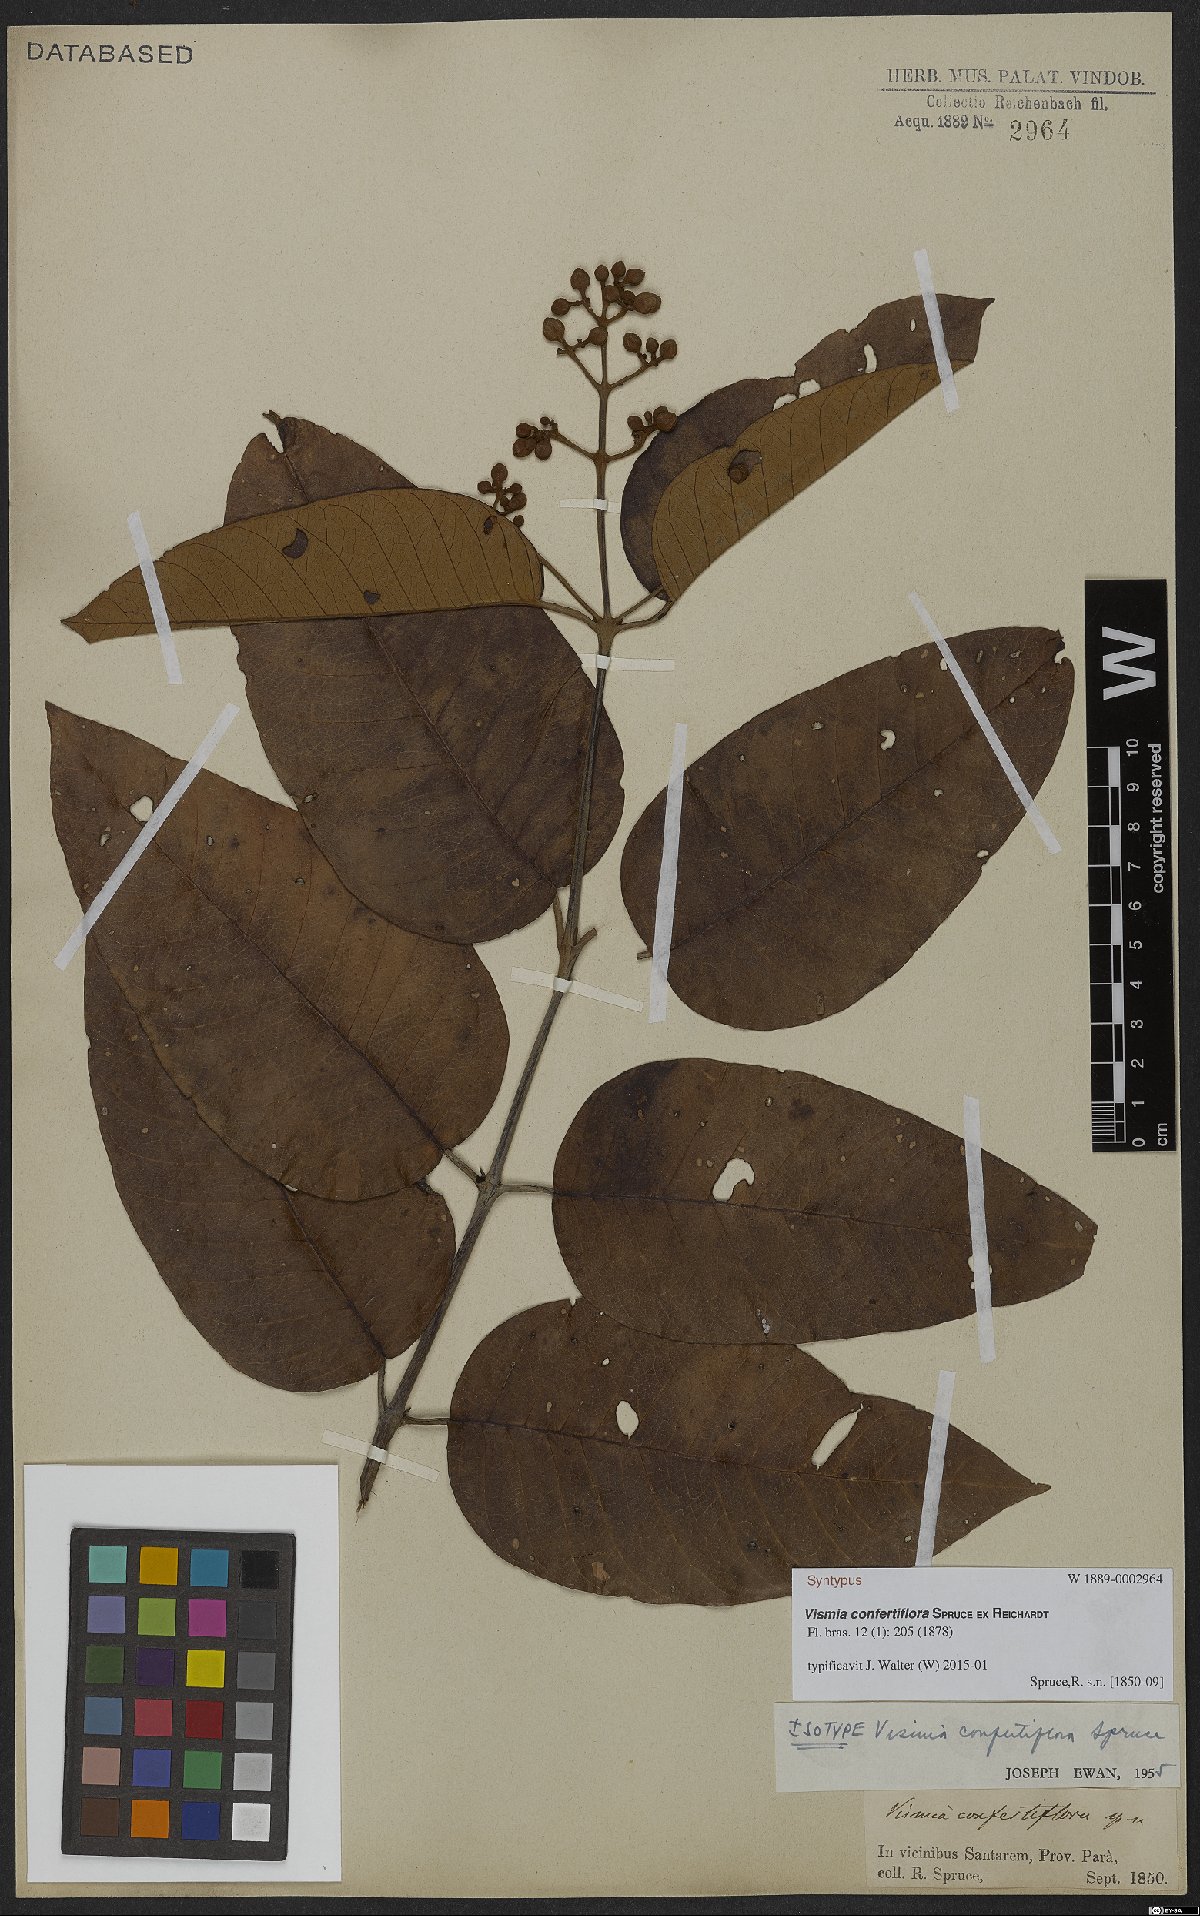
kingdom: Plantae
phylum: Tracheophyta
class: Magnoliopsida
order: Malpighiales
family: Hypericaceae
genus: Vismia
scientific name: Vismia baccifera
